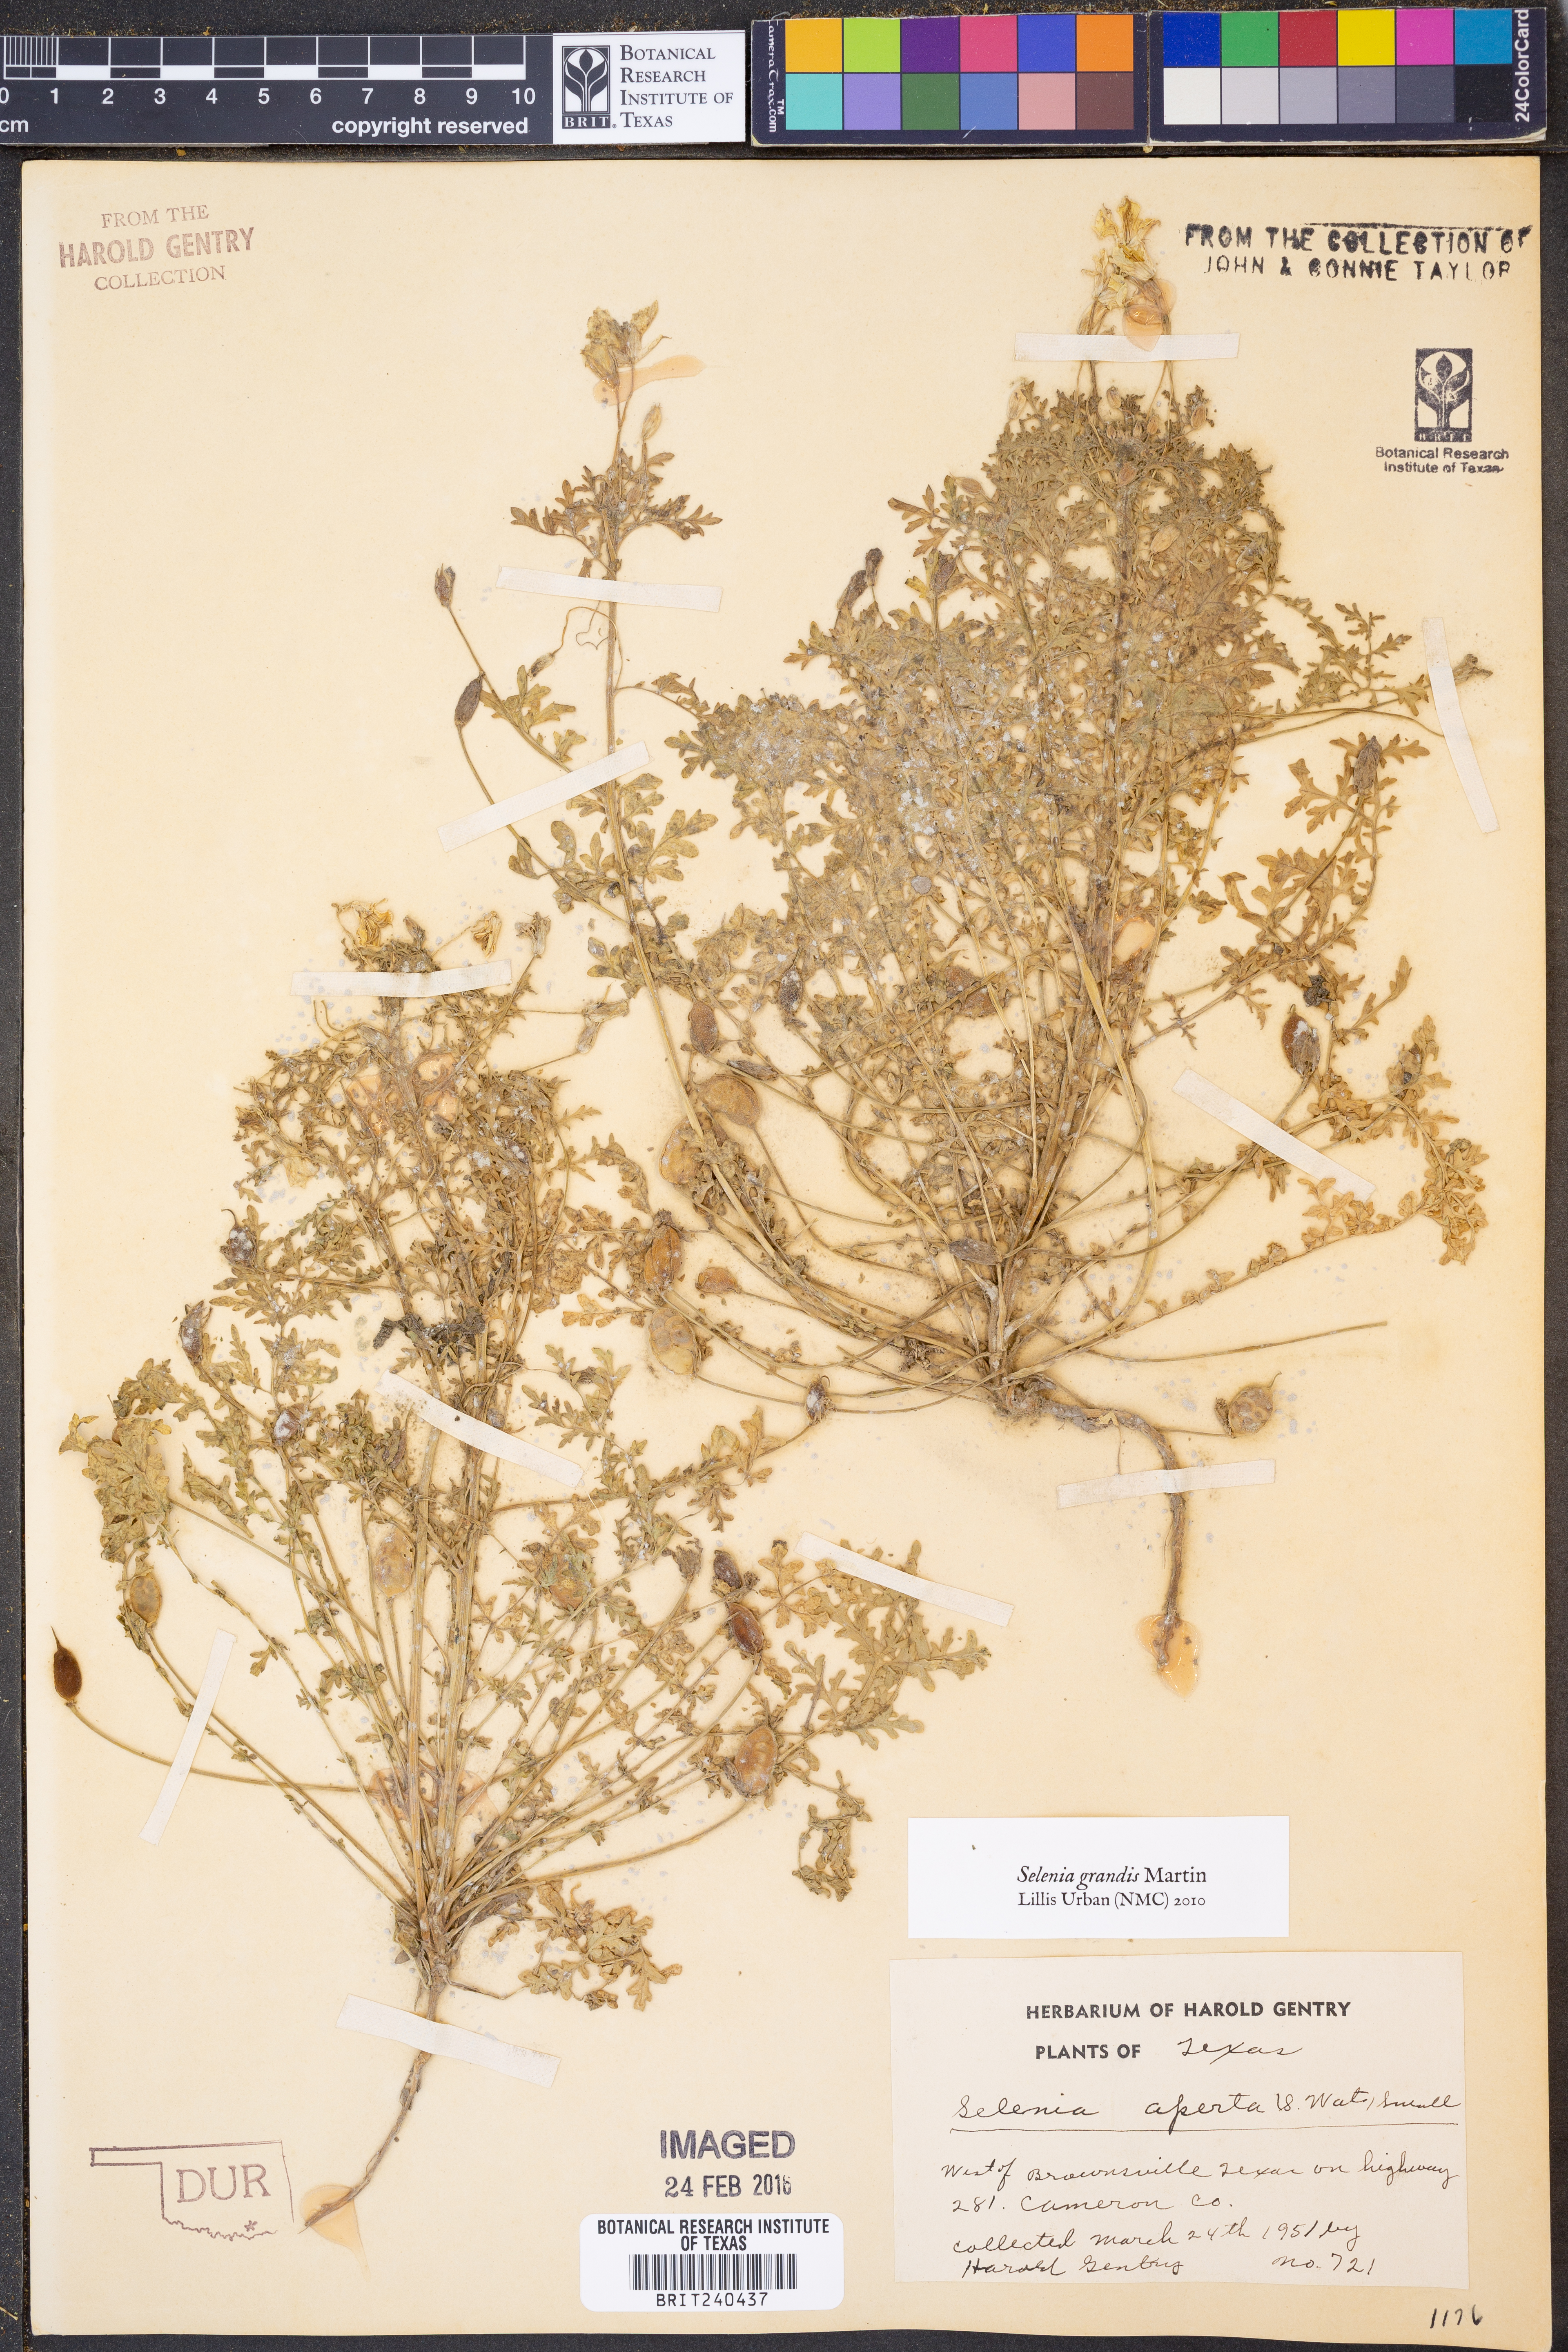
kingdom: Plantae
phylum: Tracheophyta
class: Magnoliopsida
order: Brassicales
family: Brassicaceae
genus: Selenia
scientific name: Selenia grandis
